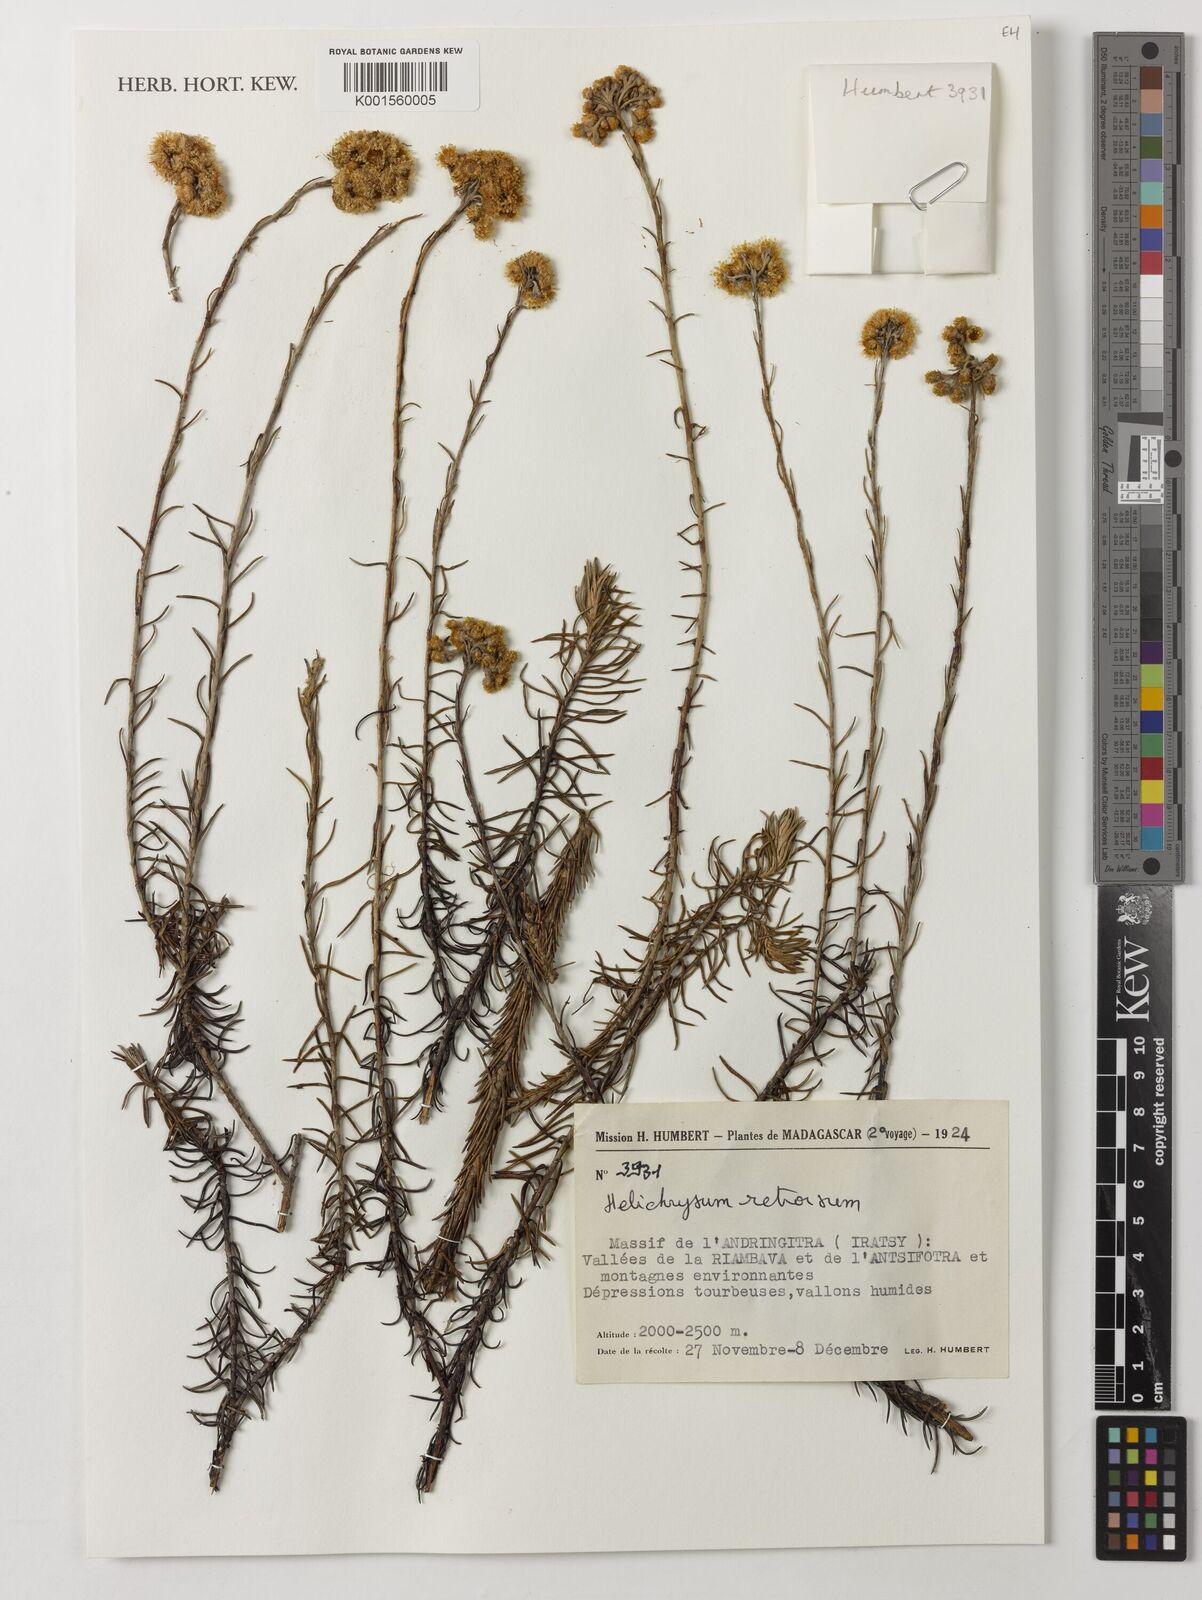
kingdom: Plantae
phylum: Tracheophyta
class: Magnoliopsida
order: Asterales
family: Asteraceae
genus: Helichrysum
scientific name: Helichrysum retrorsum
